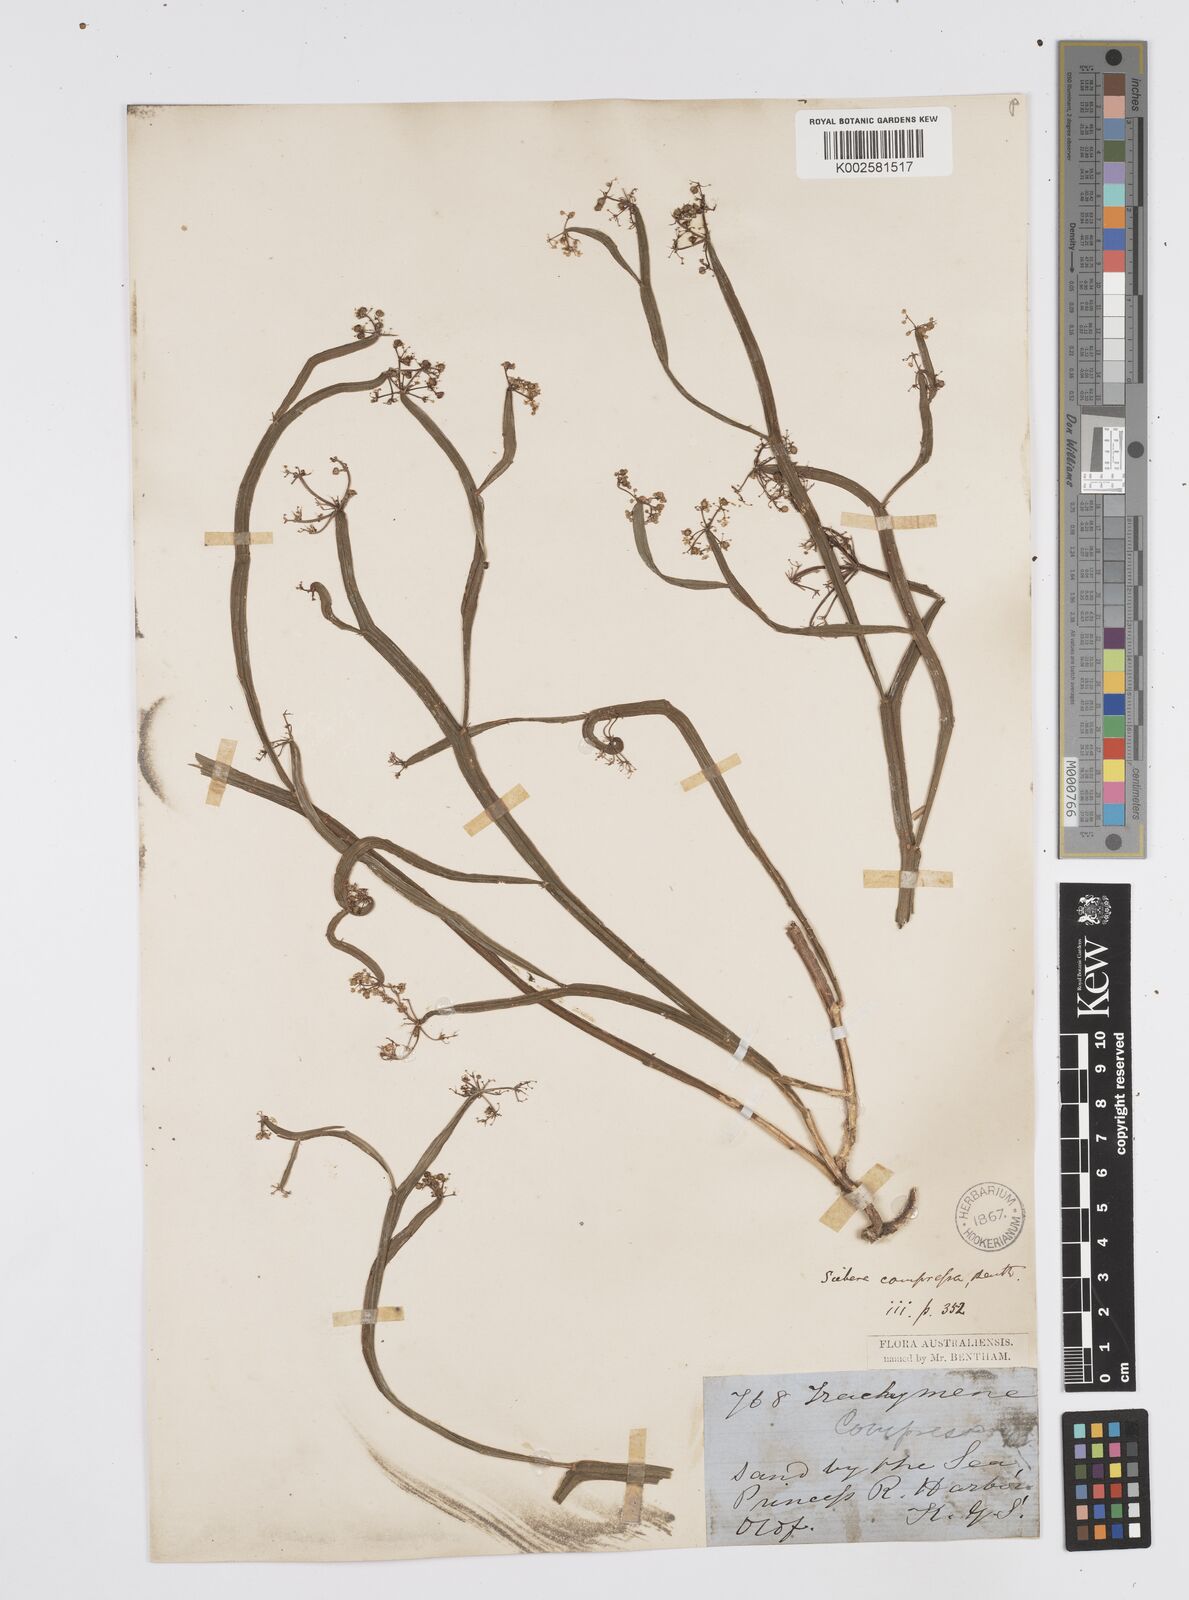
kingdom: Plantae
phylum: Tracheophyta
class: Magnoliopsida
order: Apiales
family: Apiaceae
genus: Centella
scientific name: Centella
